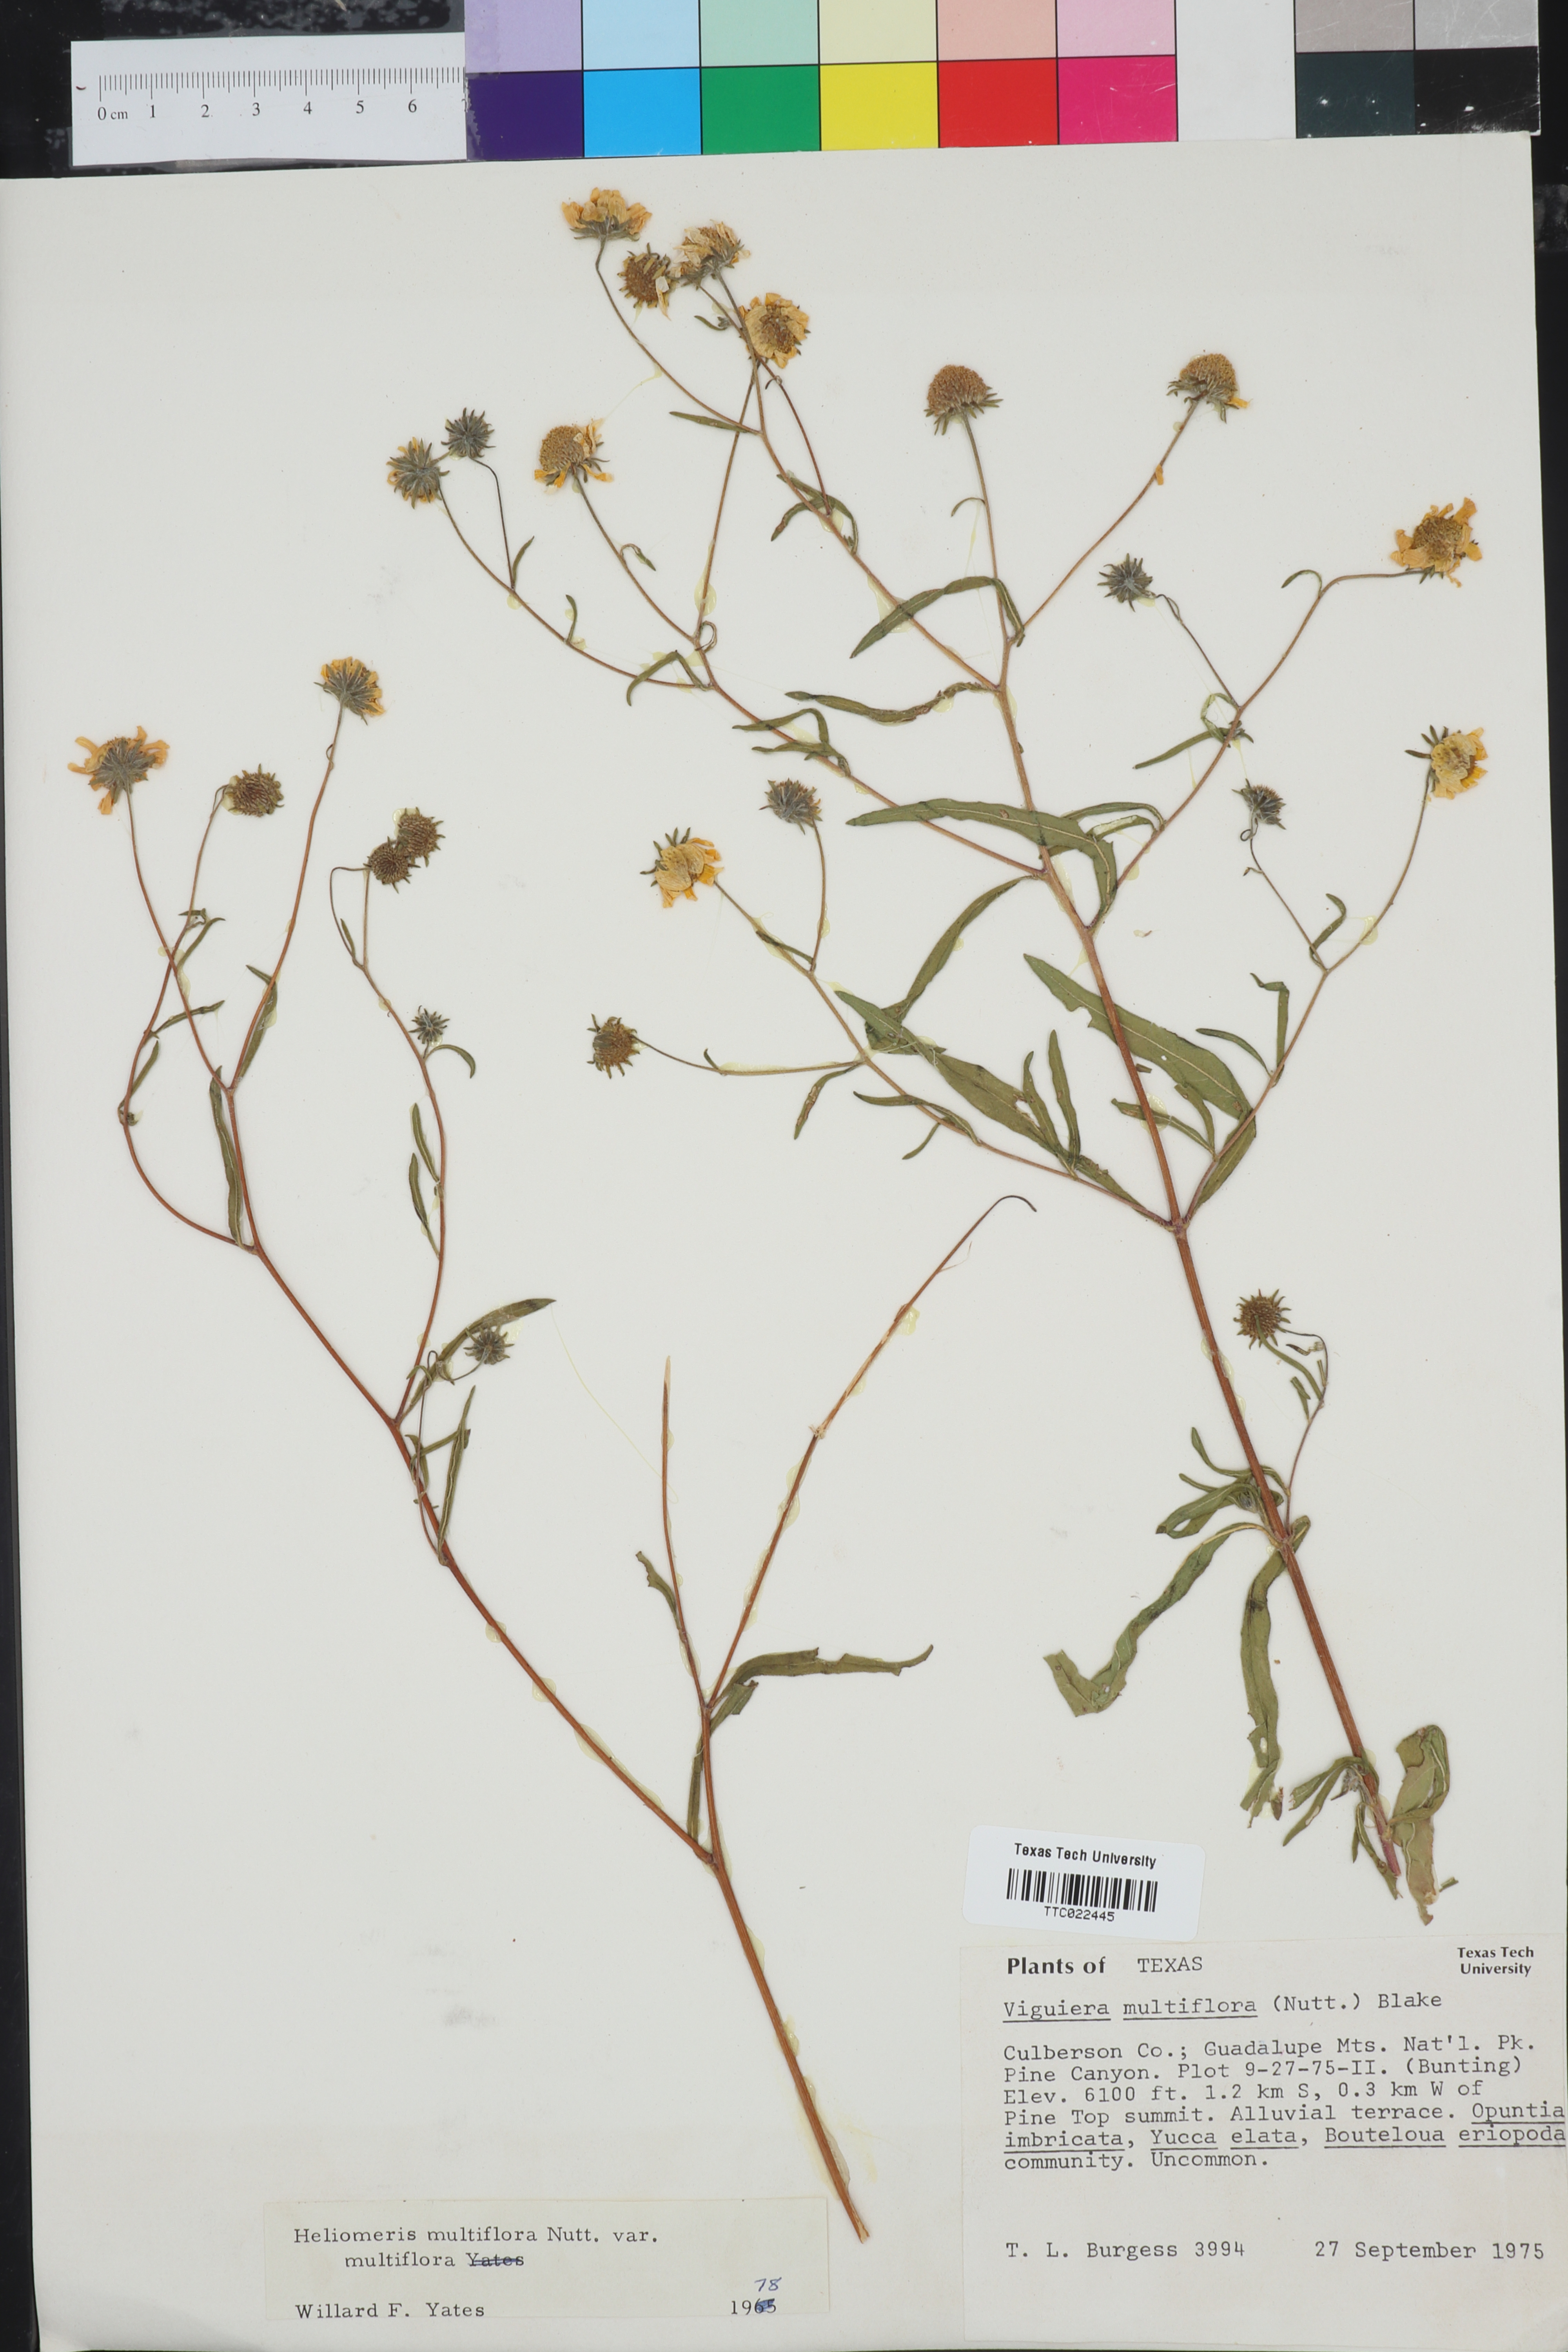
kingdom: Plantae
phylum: Tracheophyta
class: Magnoliopsida
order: Asterales
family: Asteraceae
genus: Heliomeris
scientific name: Heliomeris multiflora
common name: Showy goldeneye
